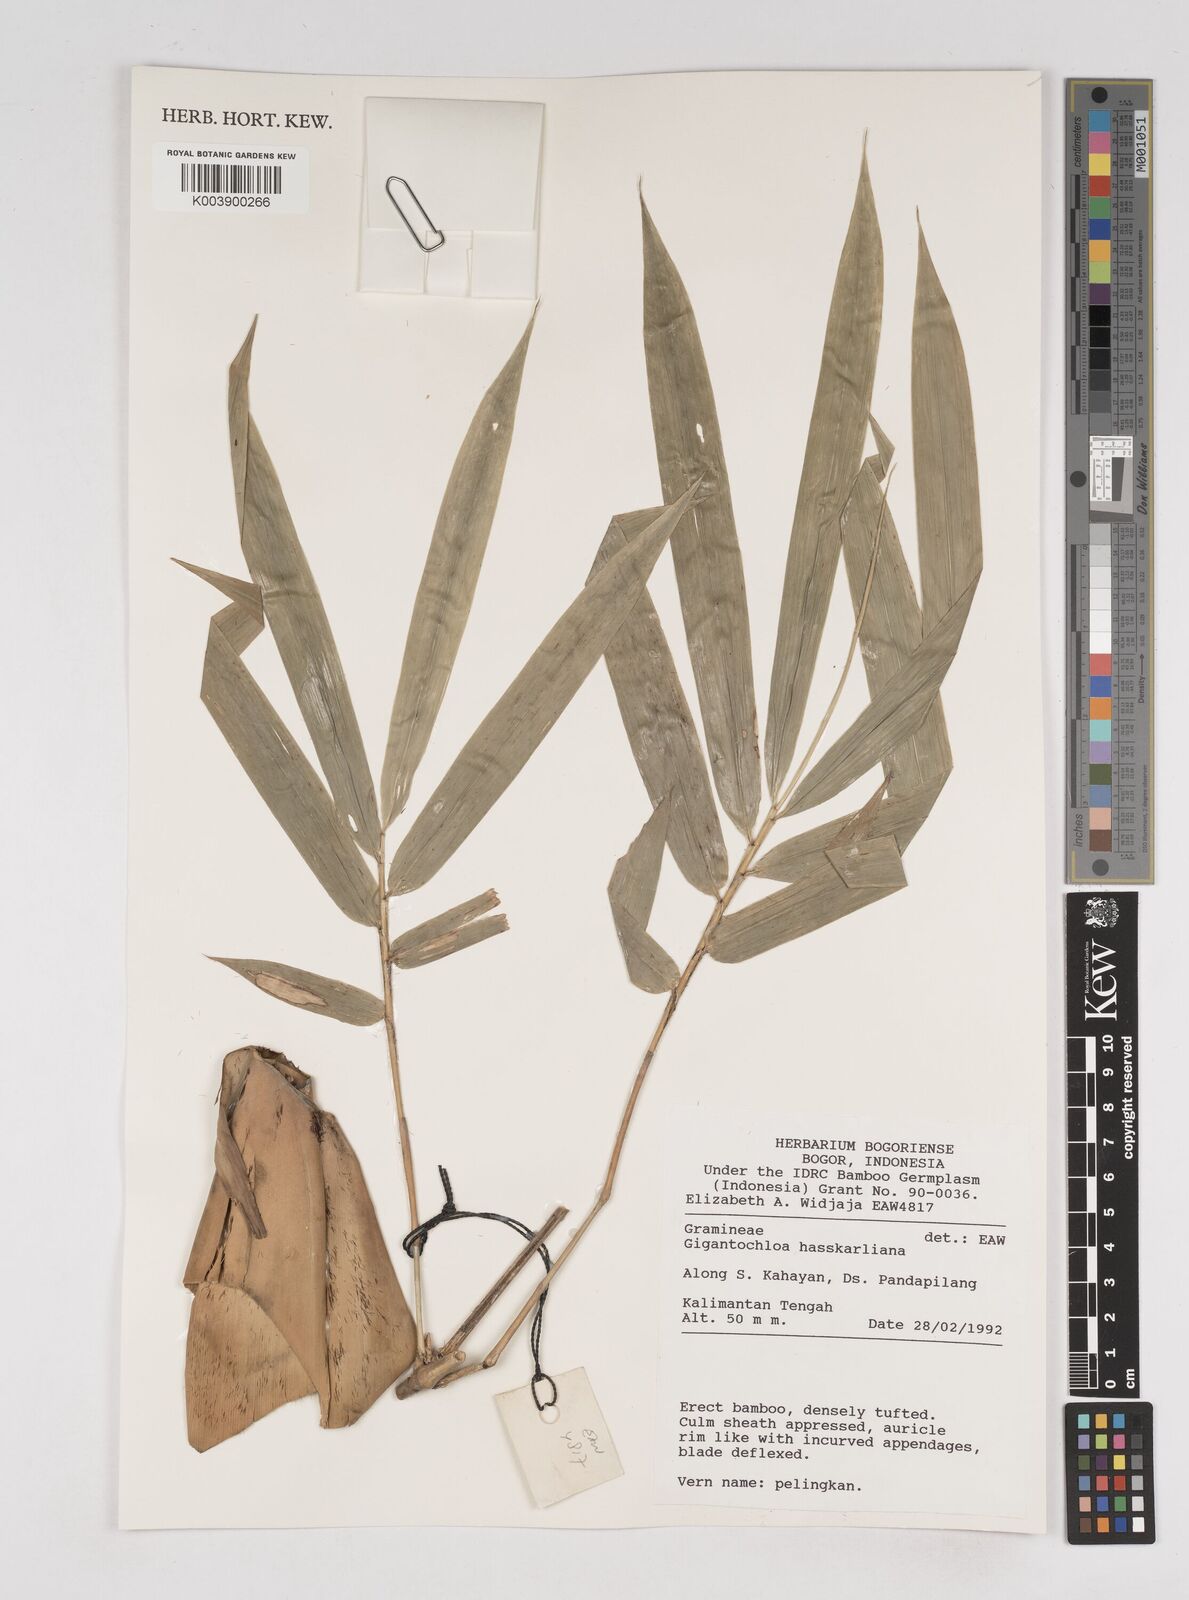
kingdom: Plantae
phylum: Tracheophyta
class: Liliopsida
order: Poales
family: Poaceae
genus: Gigantochloa
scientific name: Gigantochloa hasskarliana
